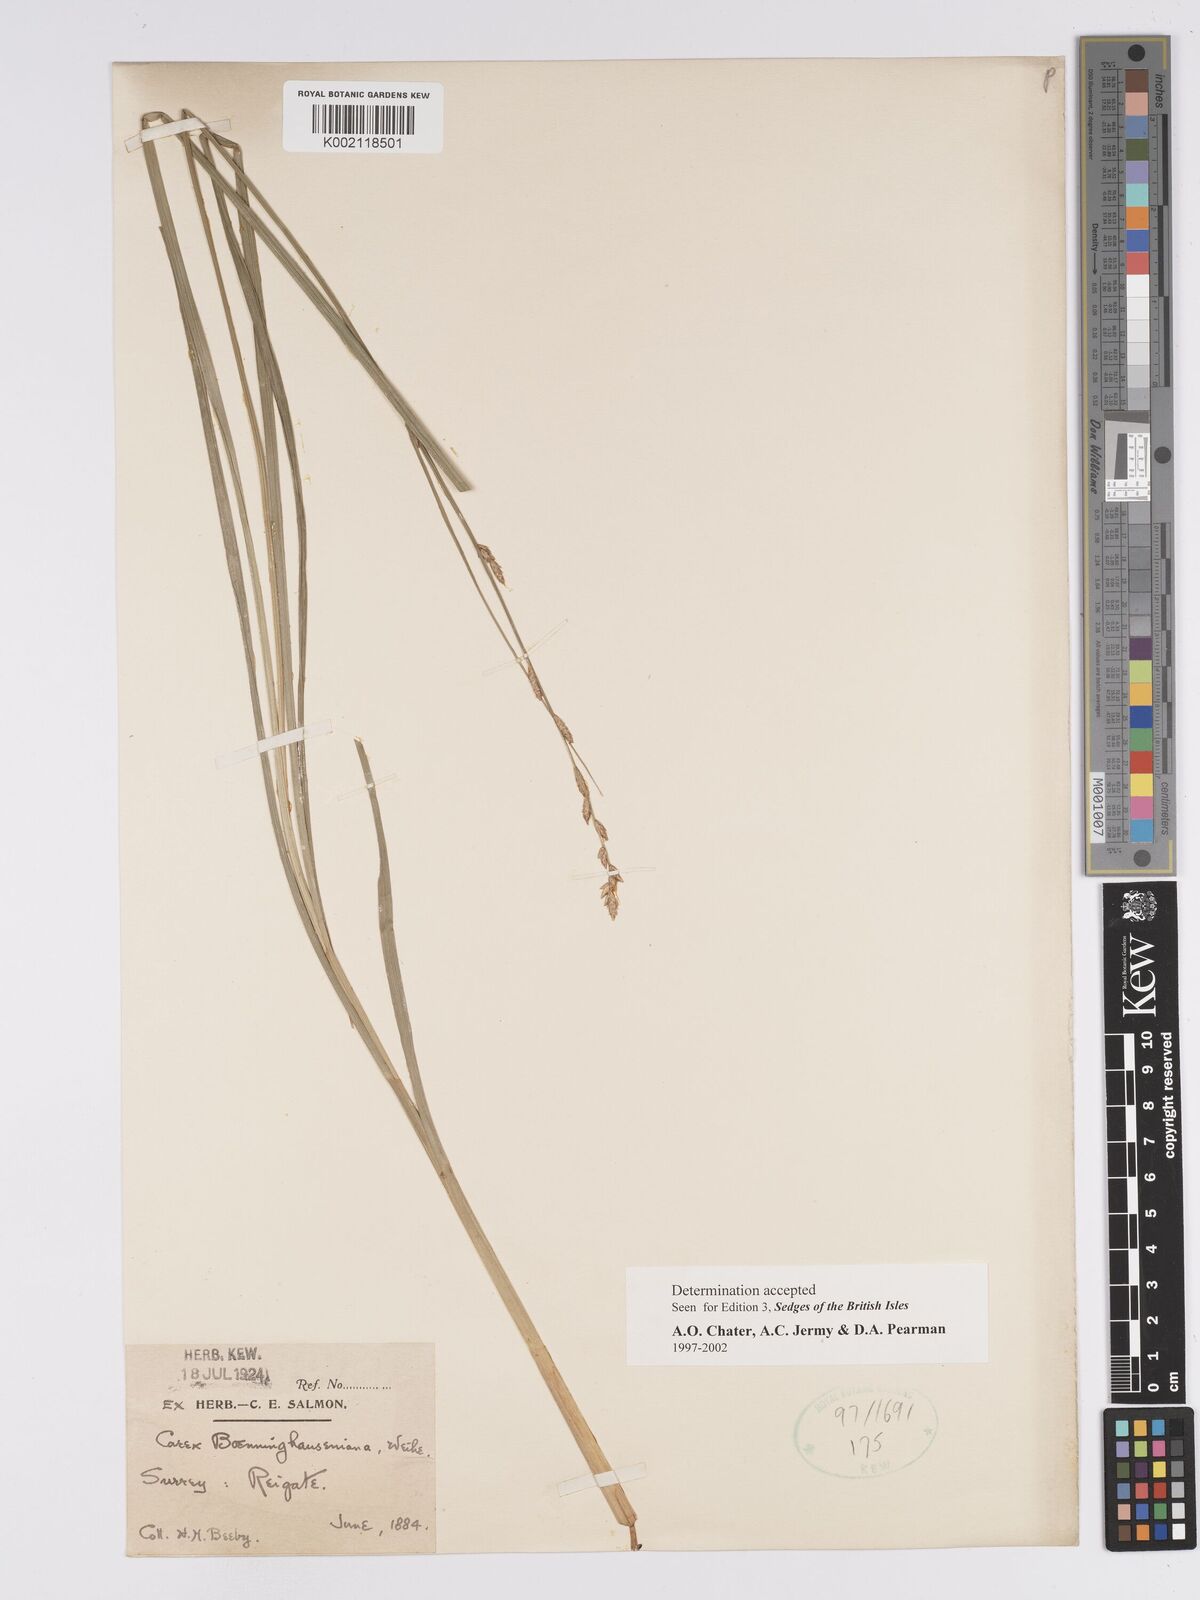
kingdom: Plantae
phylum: Tracheophyta
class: Liliopsida
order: Poales
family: Cyperaceae
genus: Carex
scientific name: Carex boenninghausiana
